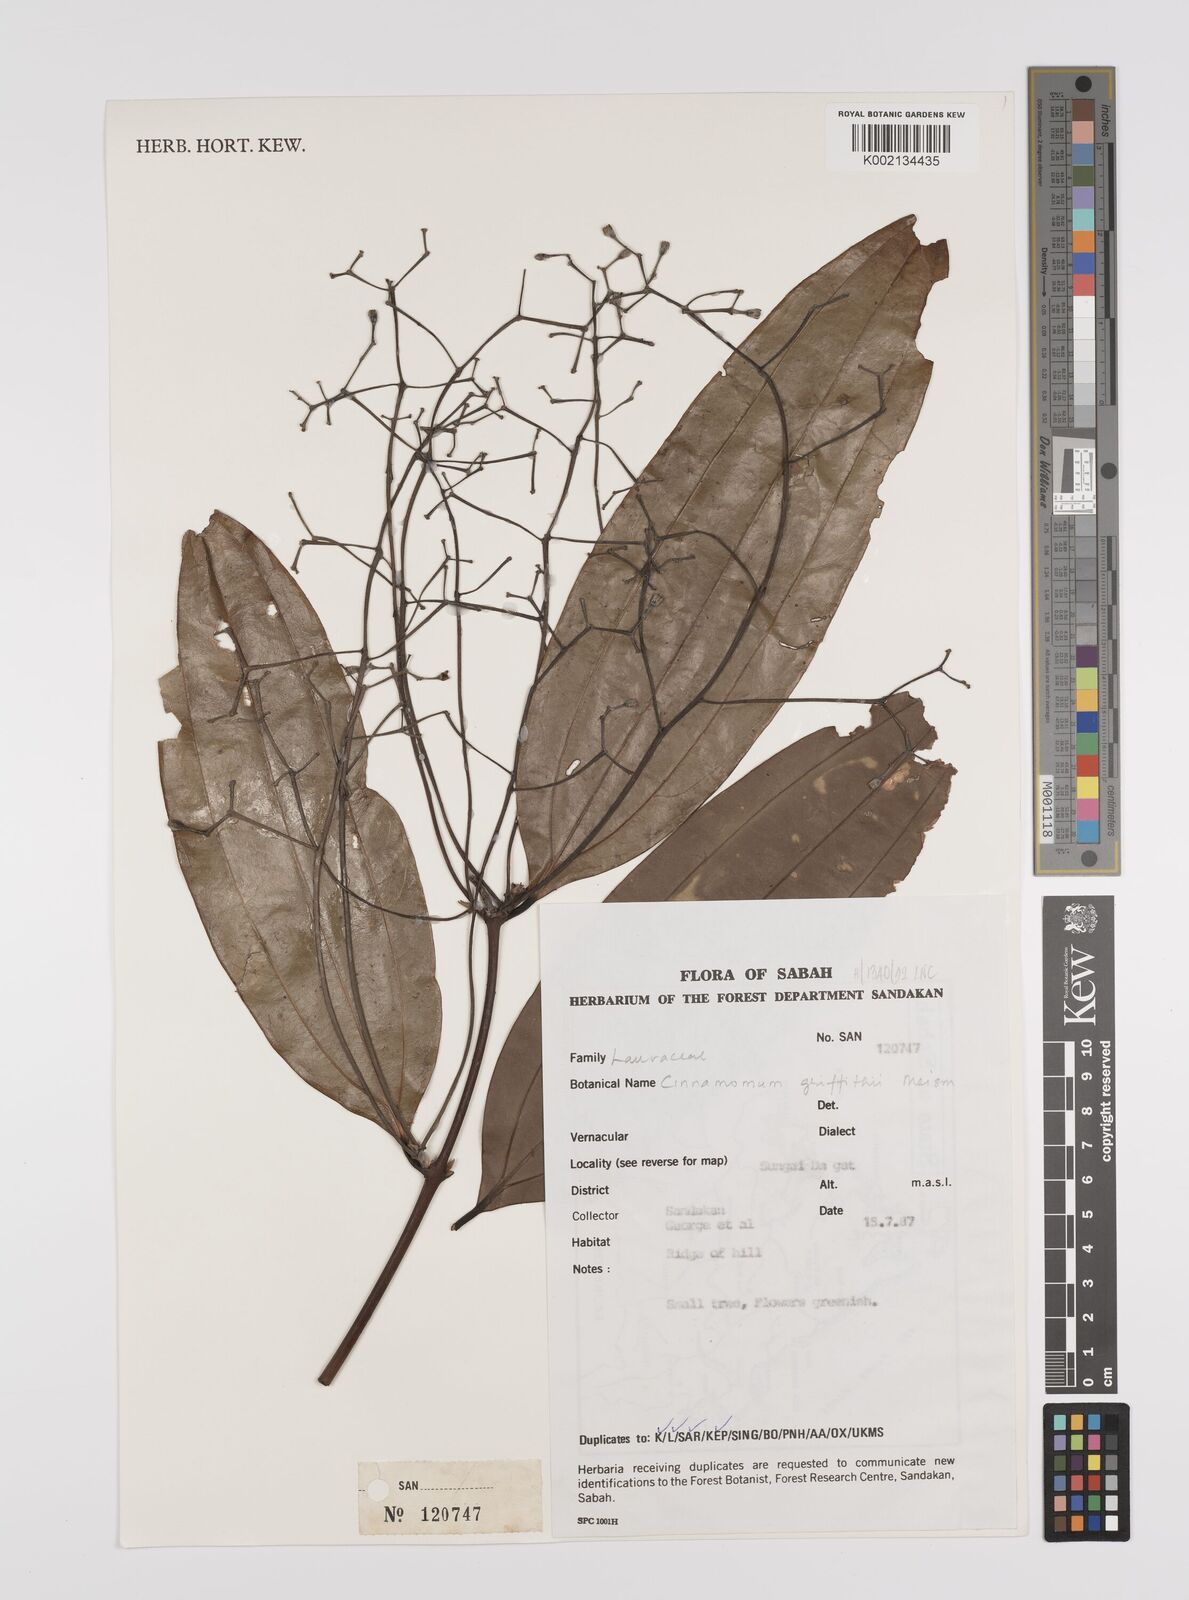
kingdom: Plantae
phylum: Tracheophyta
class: Magnoliopsida
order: Laurales
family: Lauraceae
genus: Cinnamomum
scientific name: Cinnamomum iners
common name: Wild cinnamon
